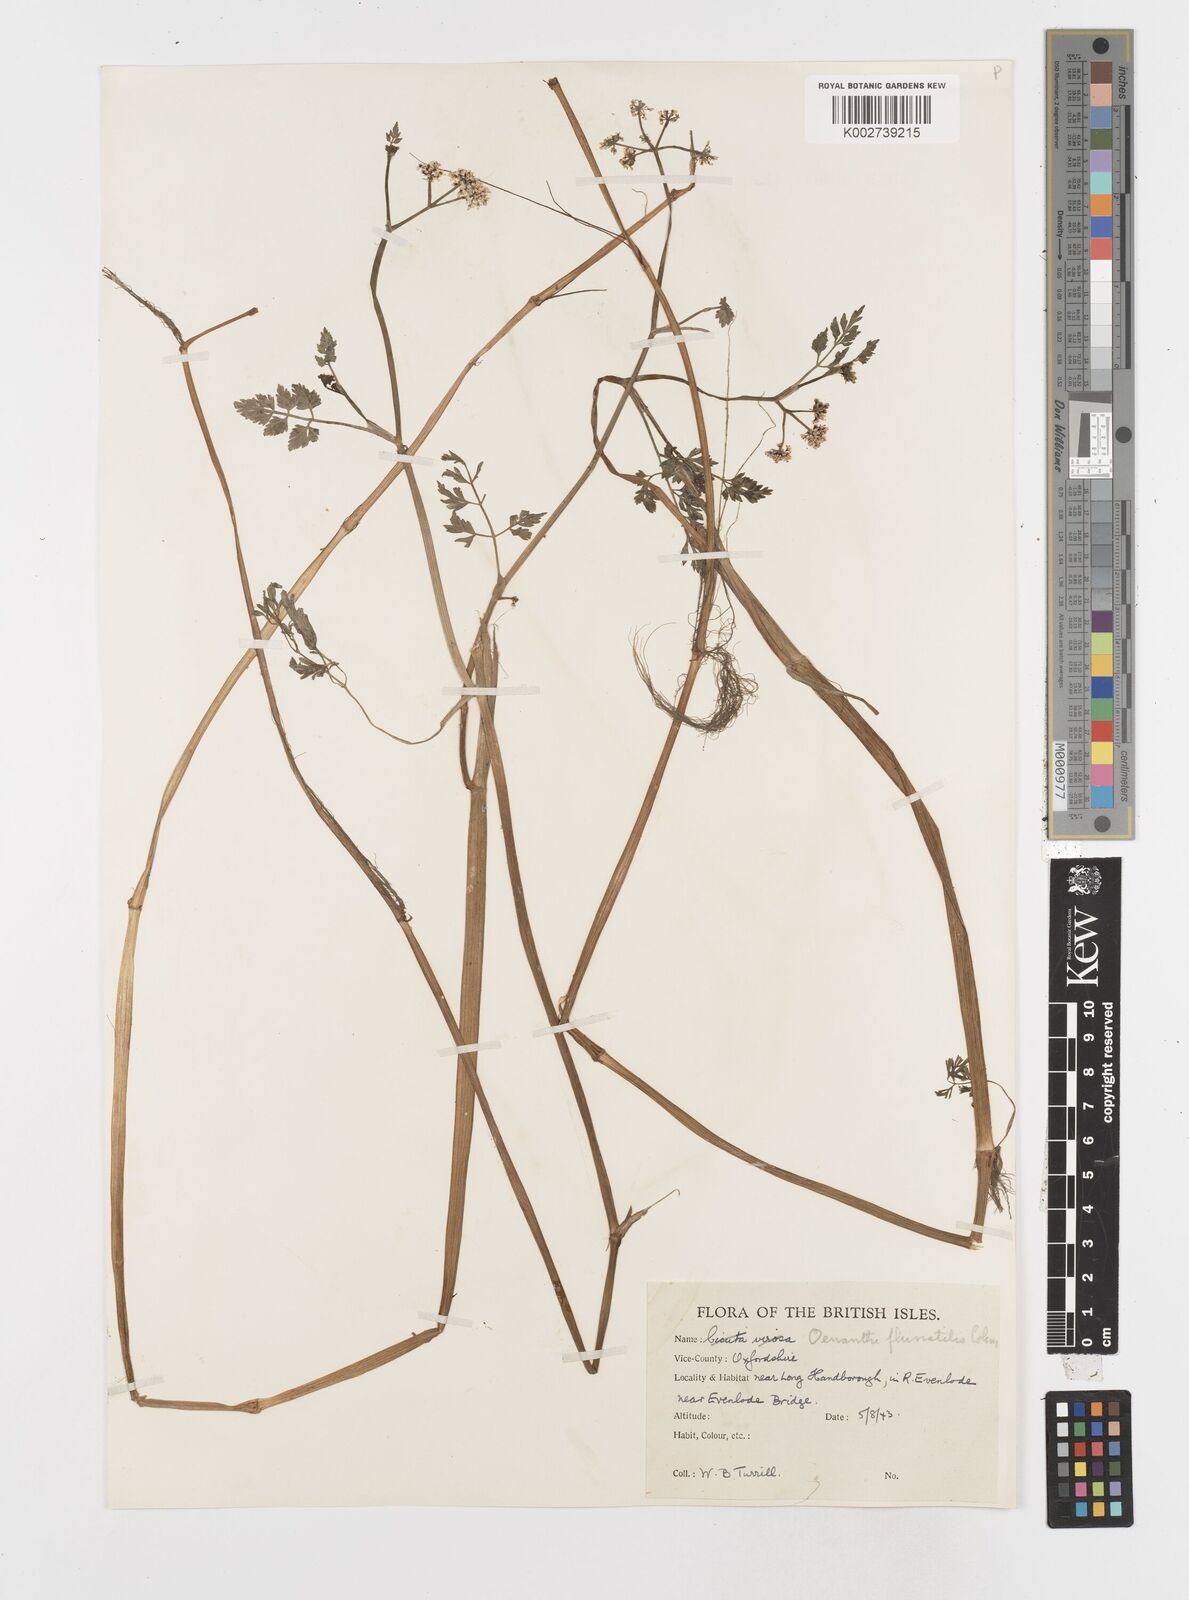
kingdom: Plantae
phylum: Tracheophyta
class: Magnoliopsida
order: Apiales
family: Apiaceae
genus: Oenanthe
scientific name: Oenanthe fluviatilis
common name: River water-dropwort
